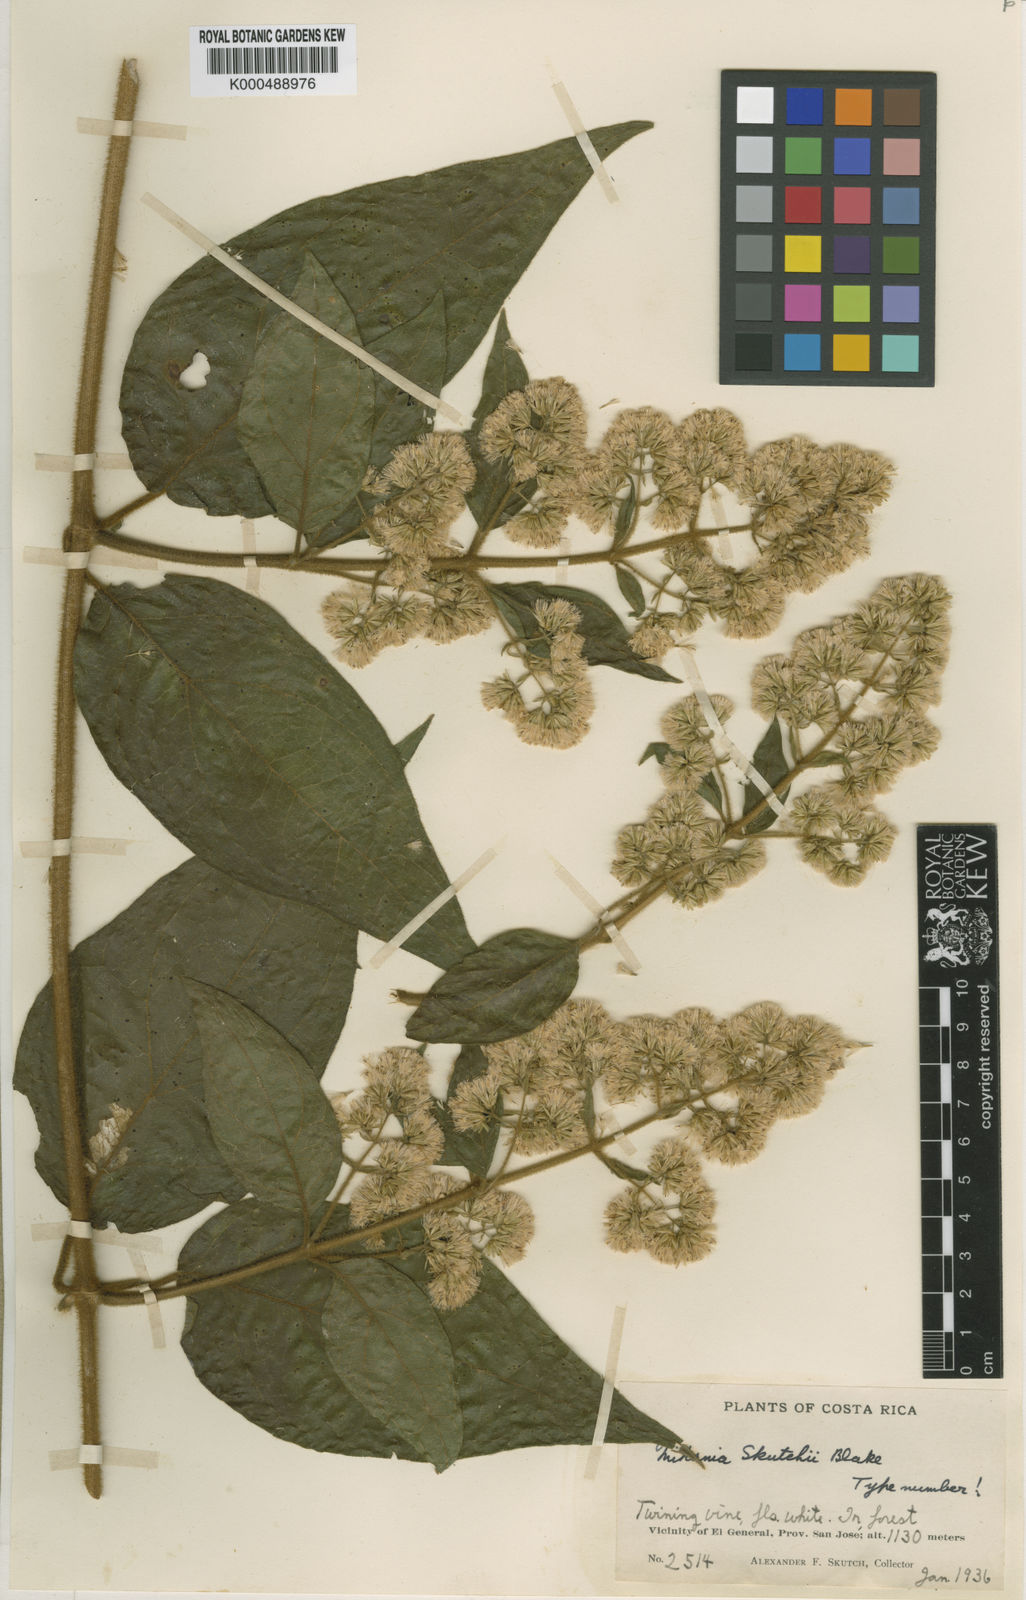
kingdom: Plantae
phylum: Tracheophyta
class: Magnoliopsida
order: Asterales
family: Asteraceae
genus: Mikania
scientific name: Mikania banisteriae
